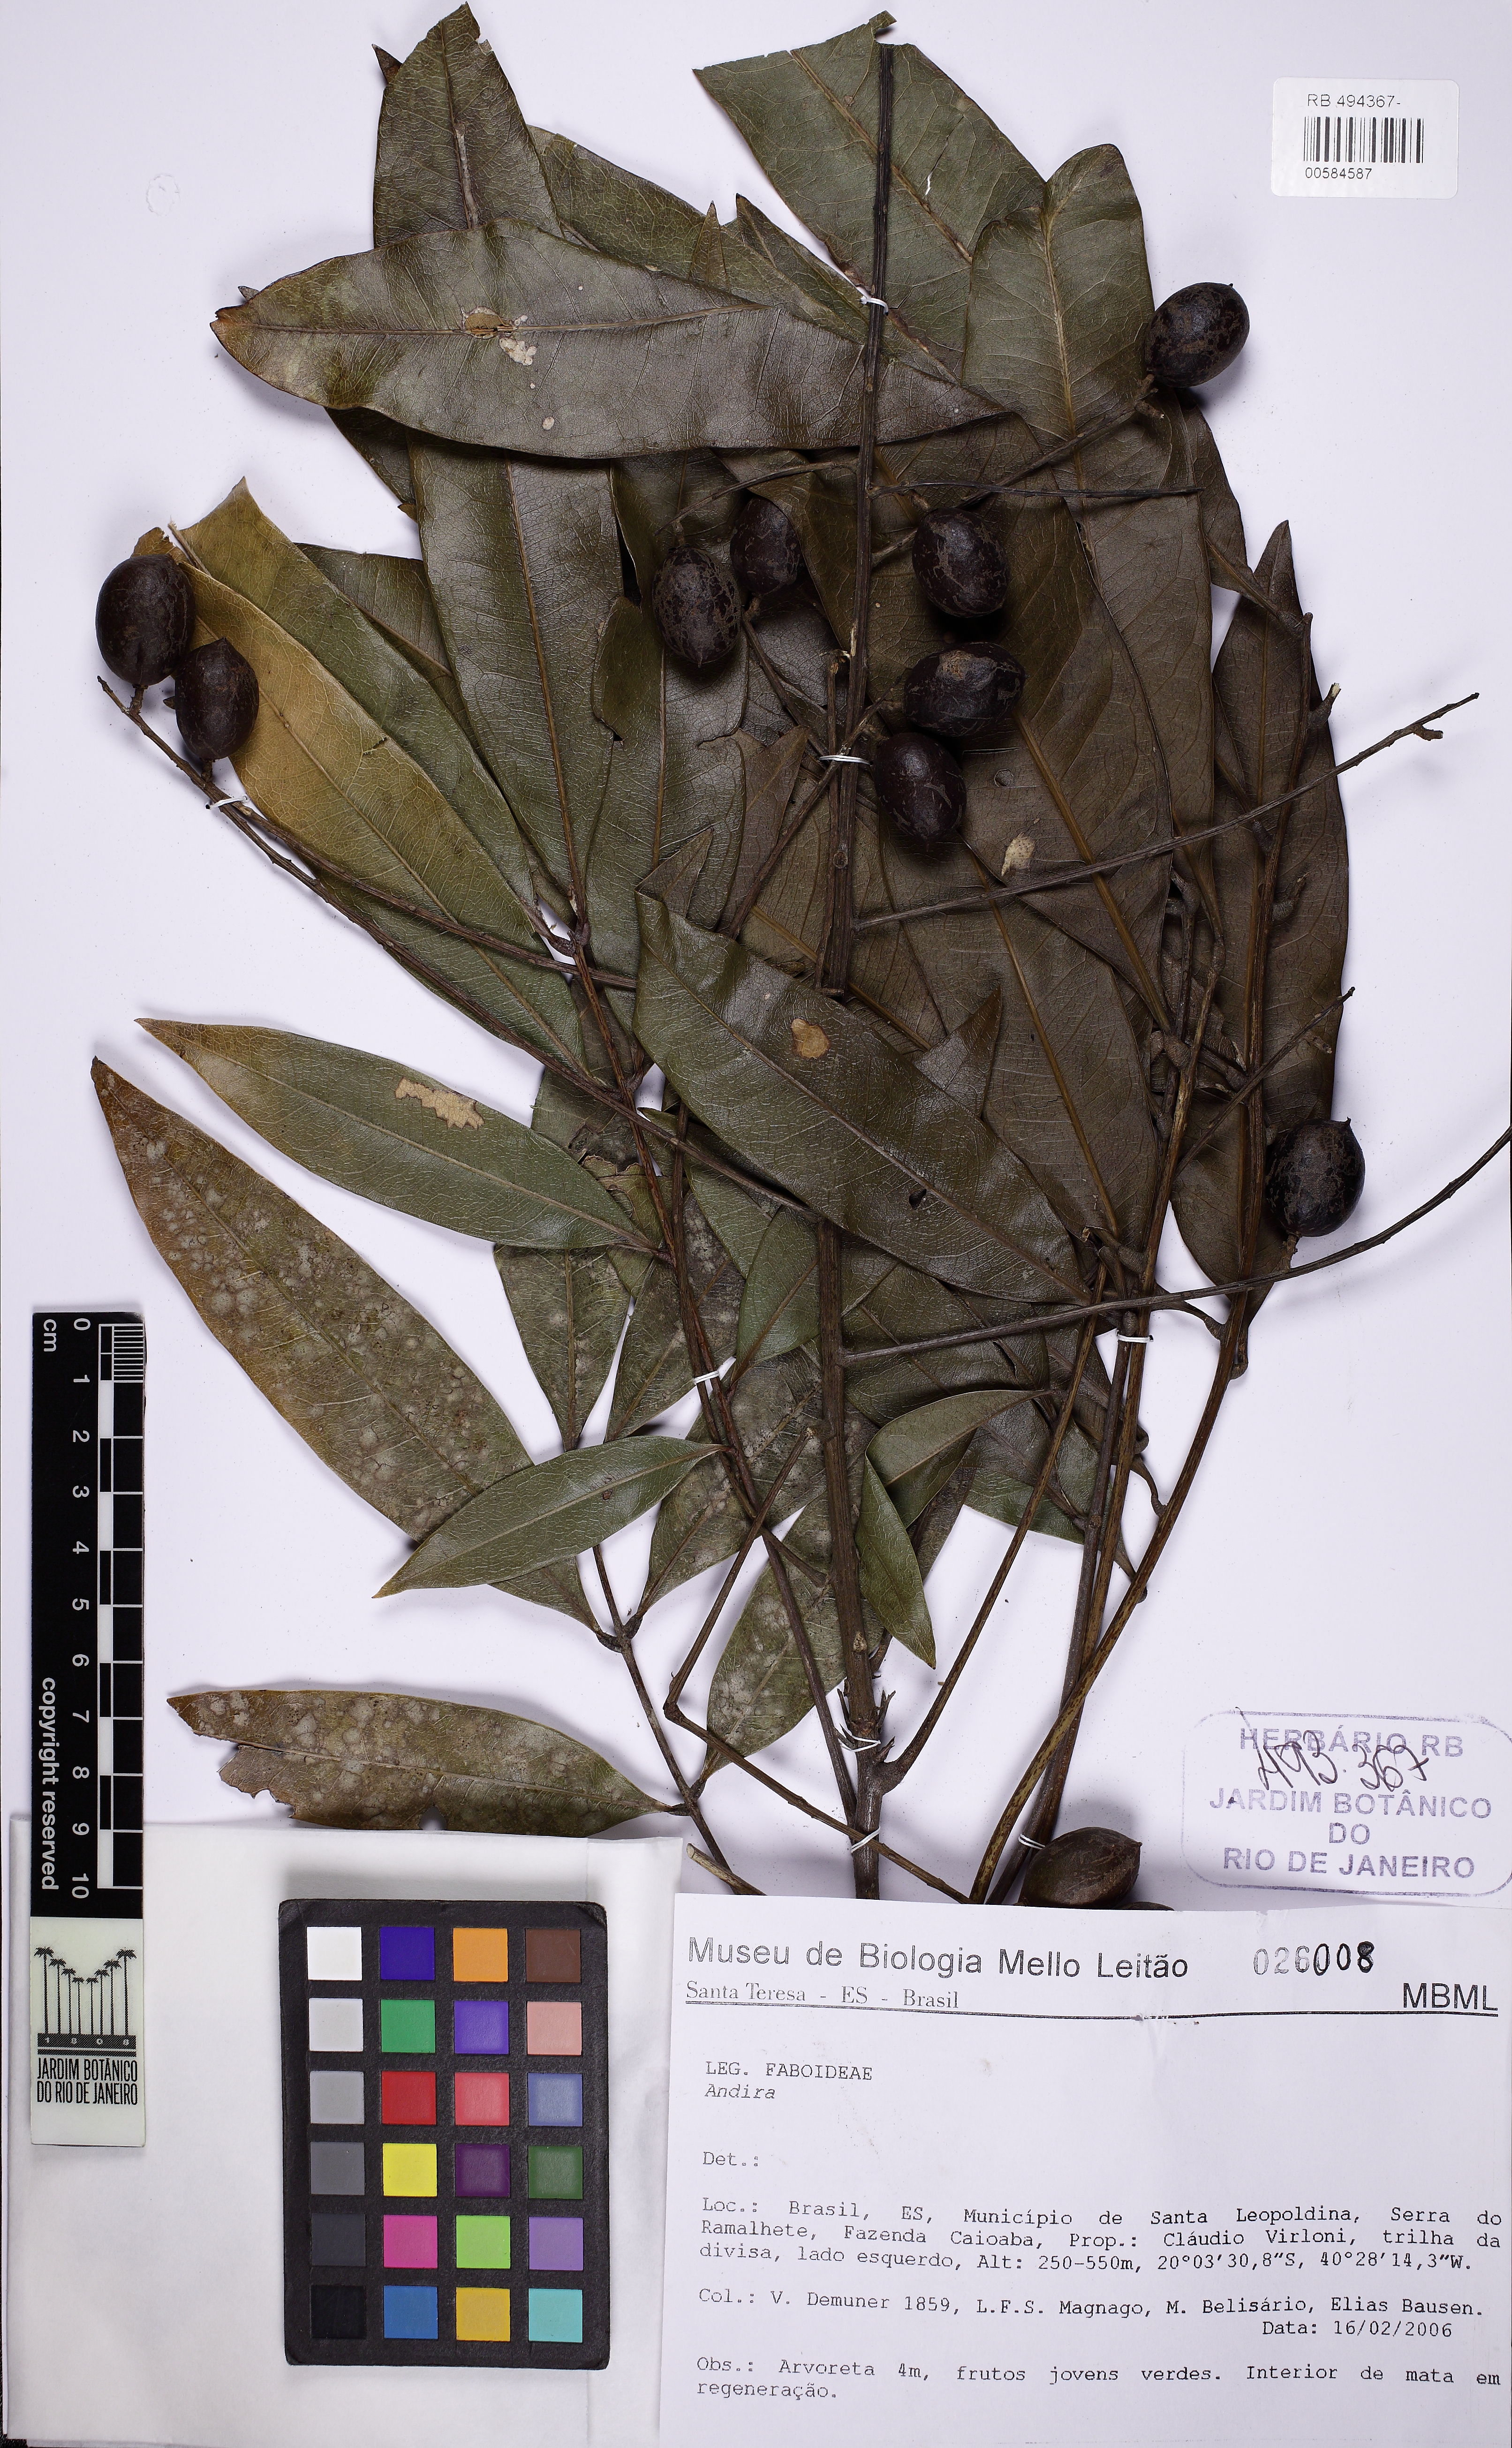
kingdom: Plantae
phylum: Tracheophyta
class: Magnoliopsida
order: Fabales
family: Fabaceae
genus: Andira
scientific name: Andira
